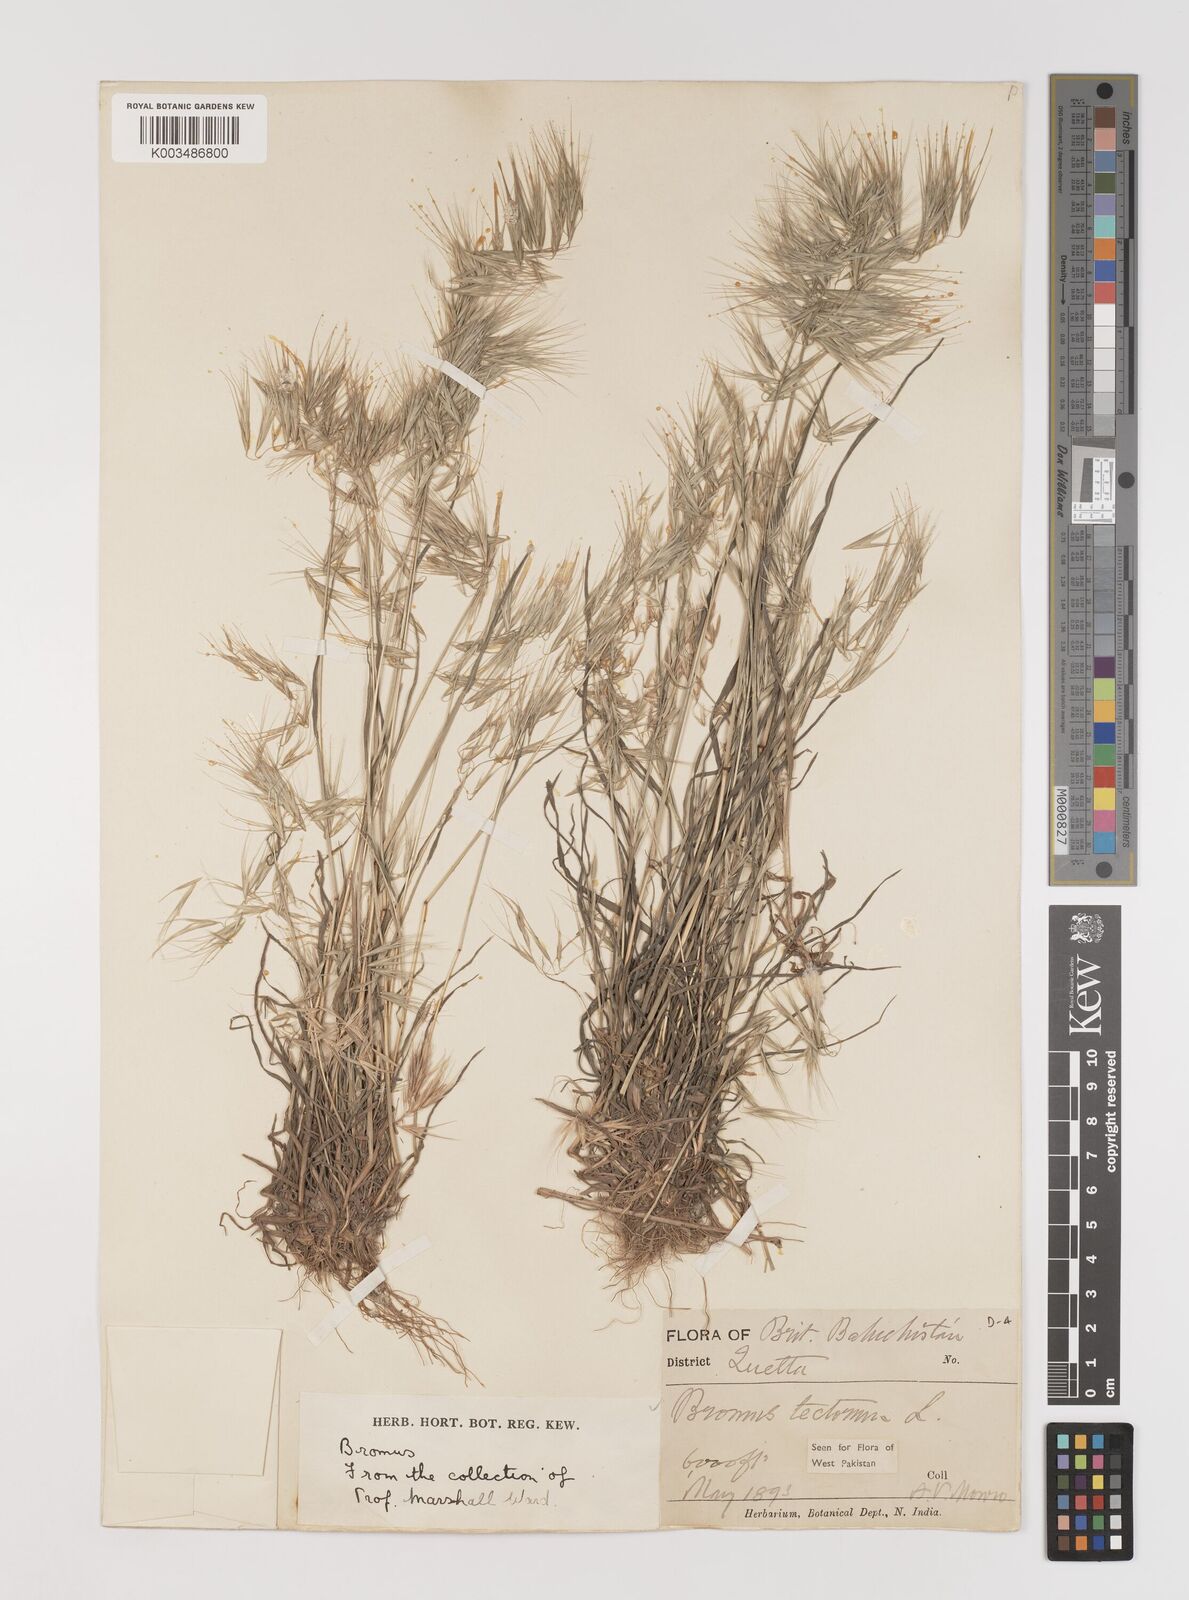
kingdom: Plantae
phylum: Tracheophyta
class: Liliopsida
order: Poales
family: Poaceae
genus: Bromus
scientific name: Bromus tectorum
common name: Cheatgrass
